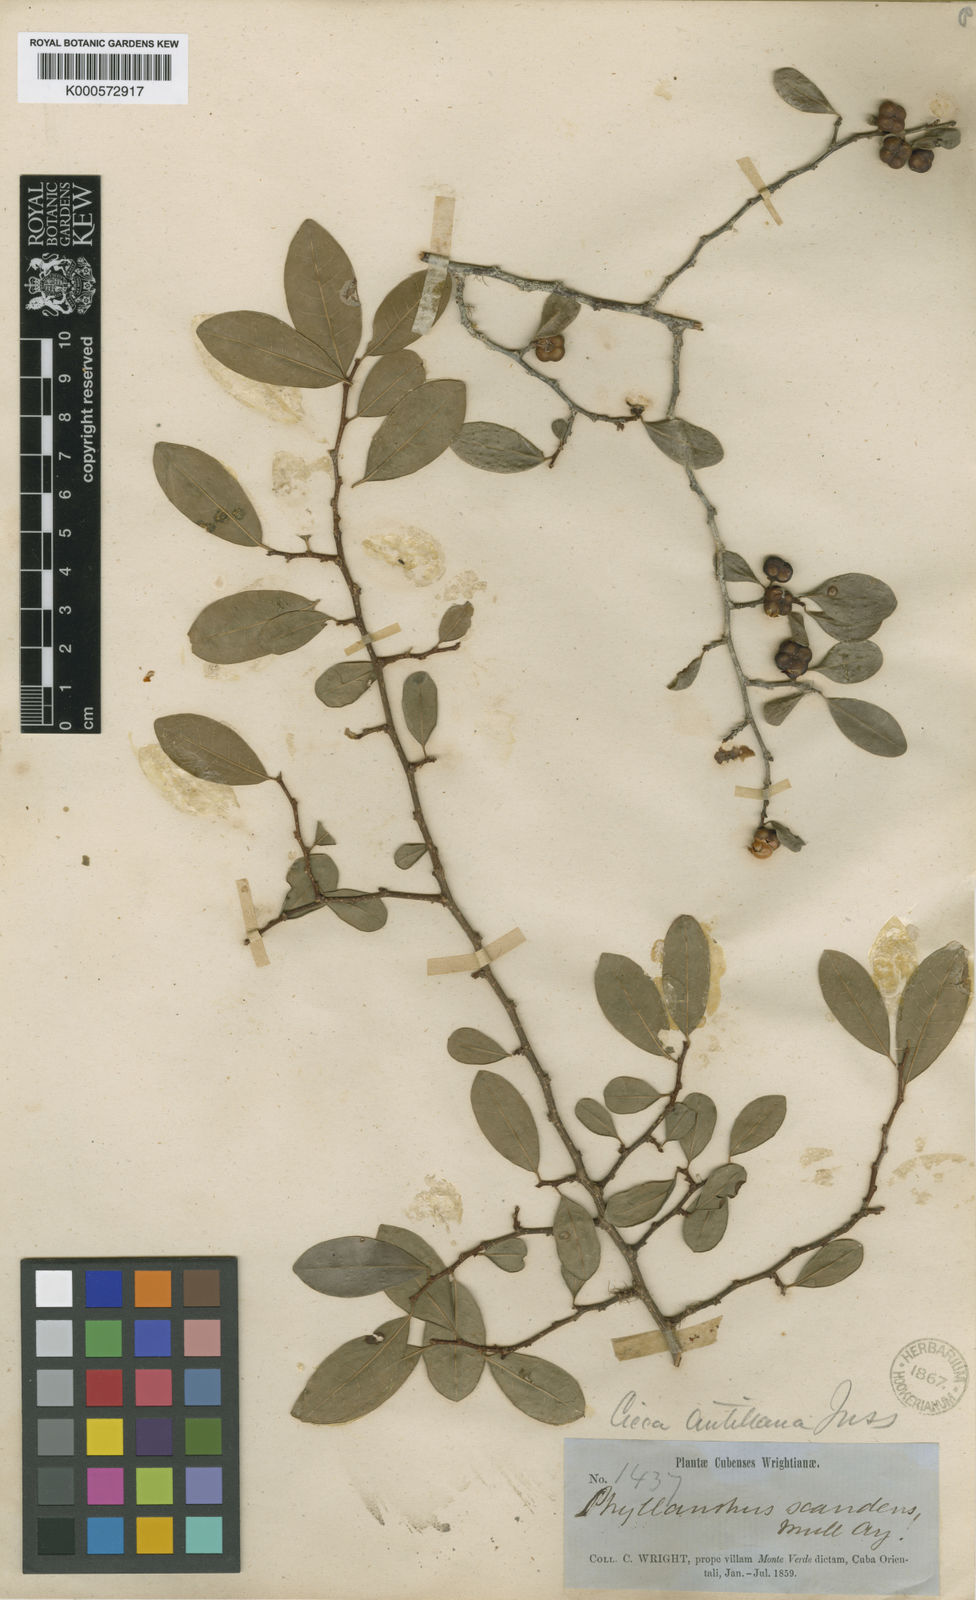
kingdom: Plantae
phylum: Tracheophyta
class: Magnoliopsida
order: Malpighiales
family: Phyllanthaceae
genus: Margaritaria
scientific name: Margaritaria scandens
